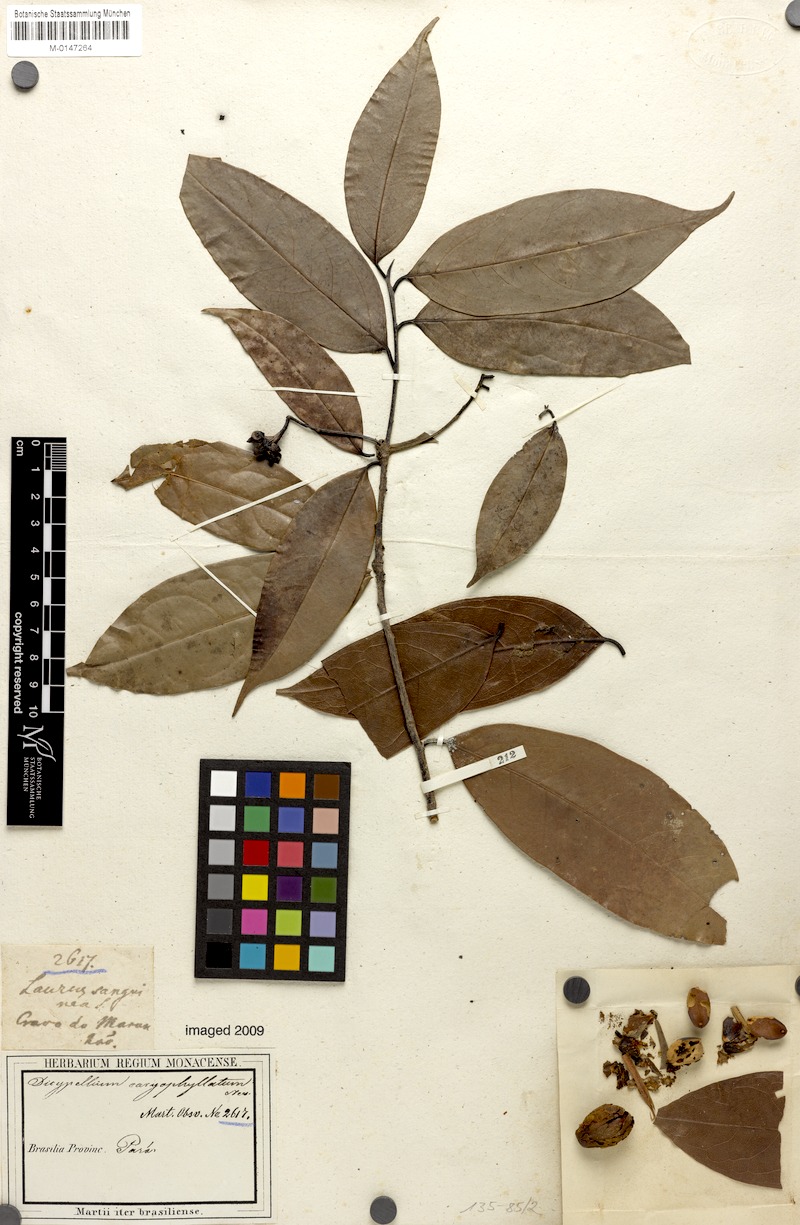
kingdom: Plantae
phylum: Tracheophyta
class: Magnoliopsida
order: Laurales
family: Lauraceae
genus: Dicypellium
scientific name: Dicypellium caryophyllaceum
